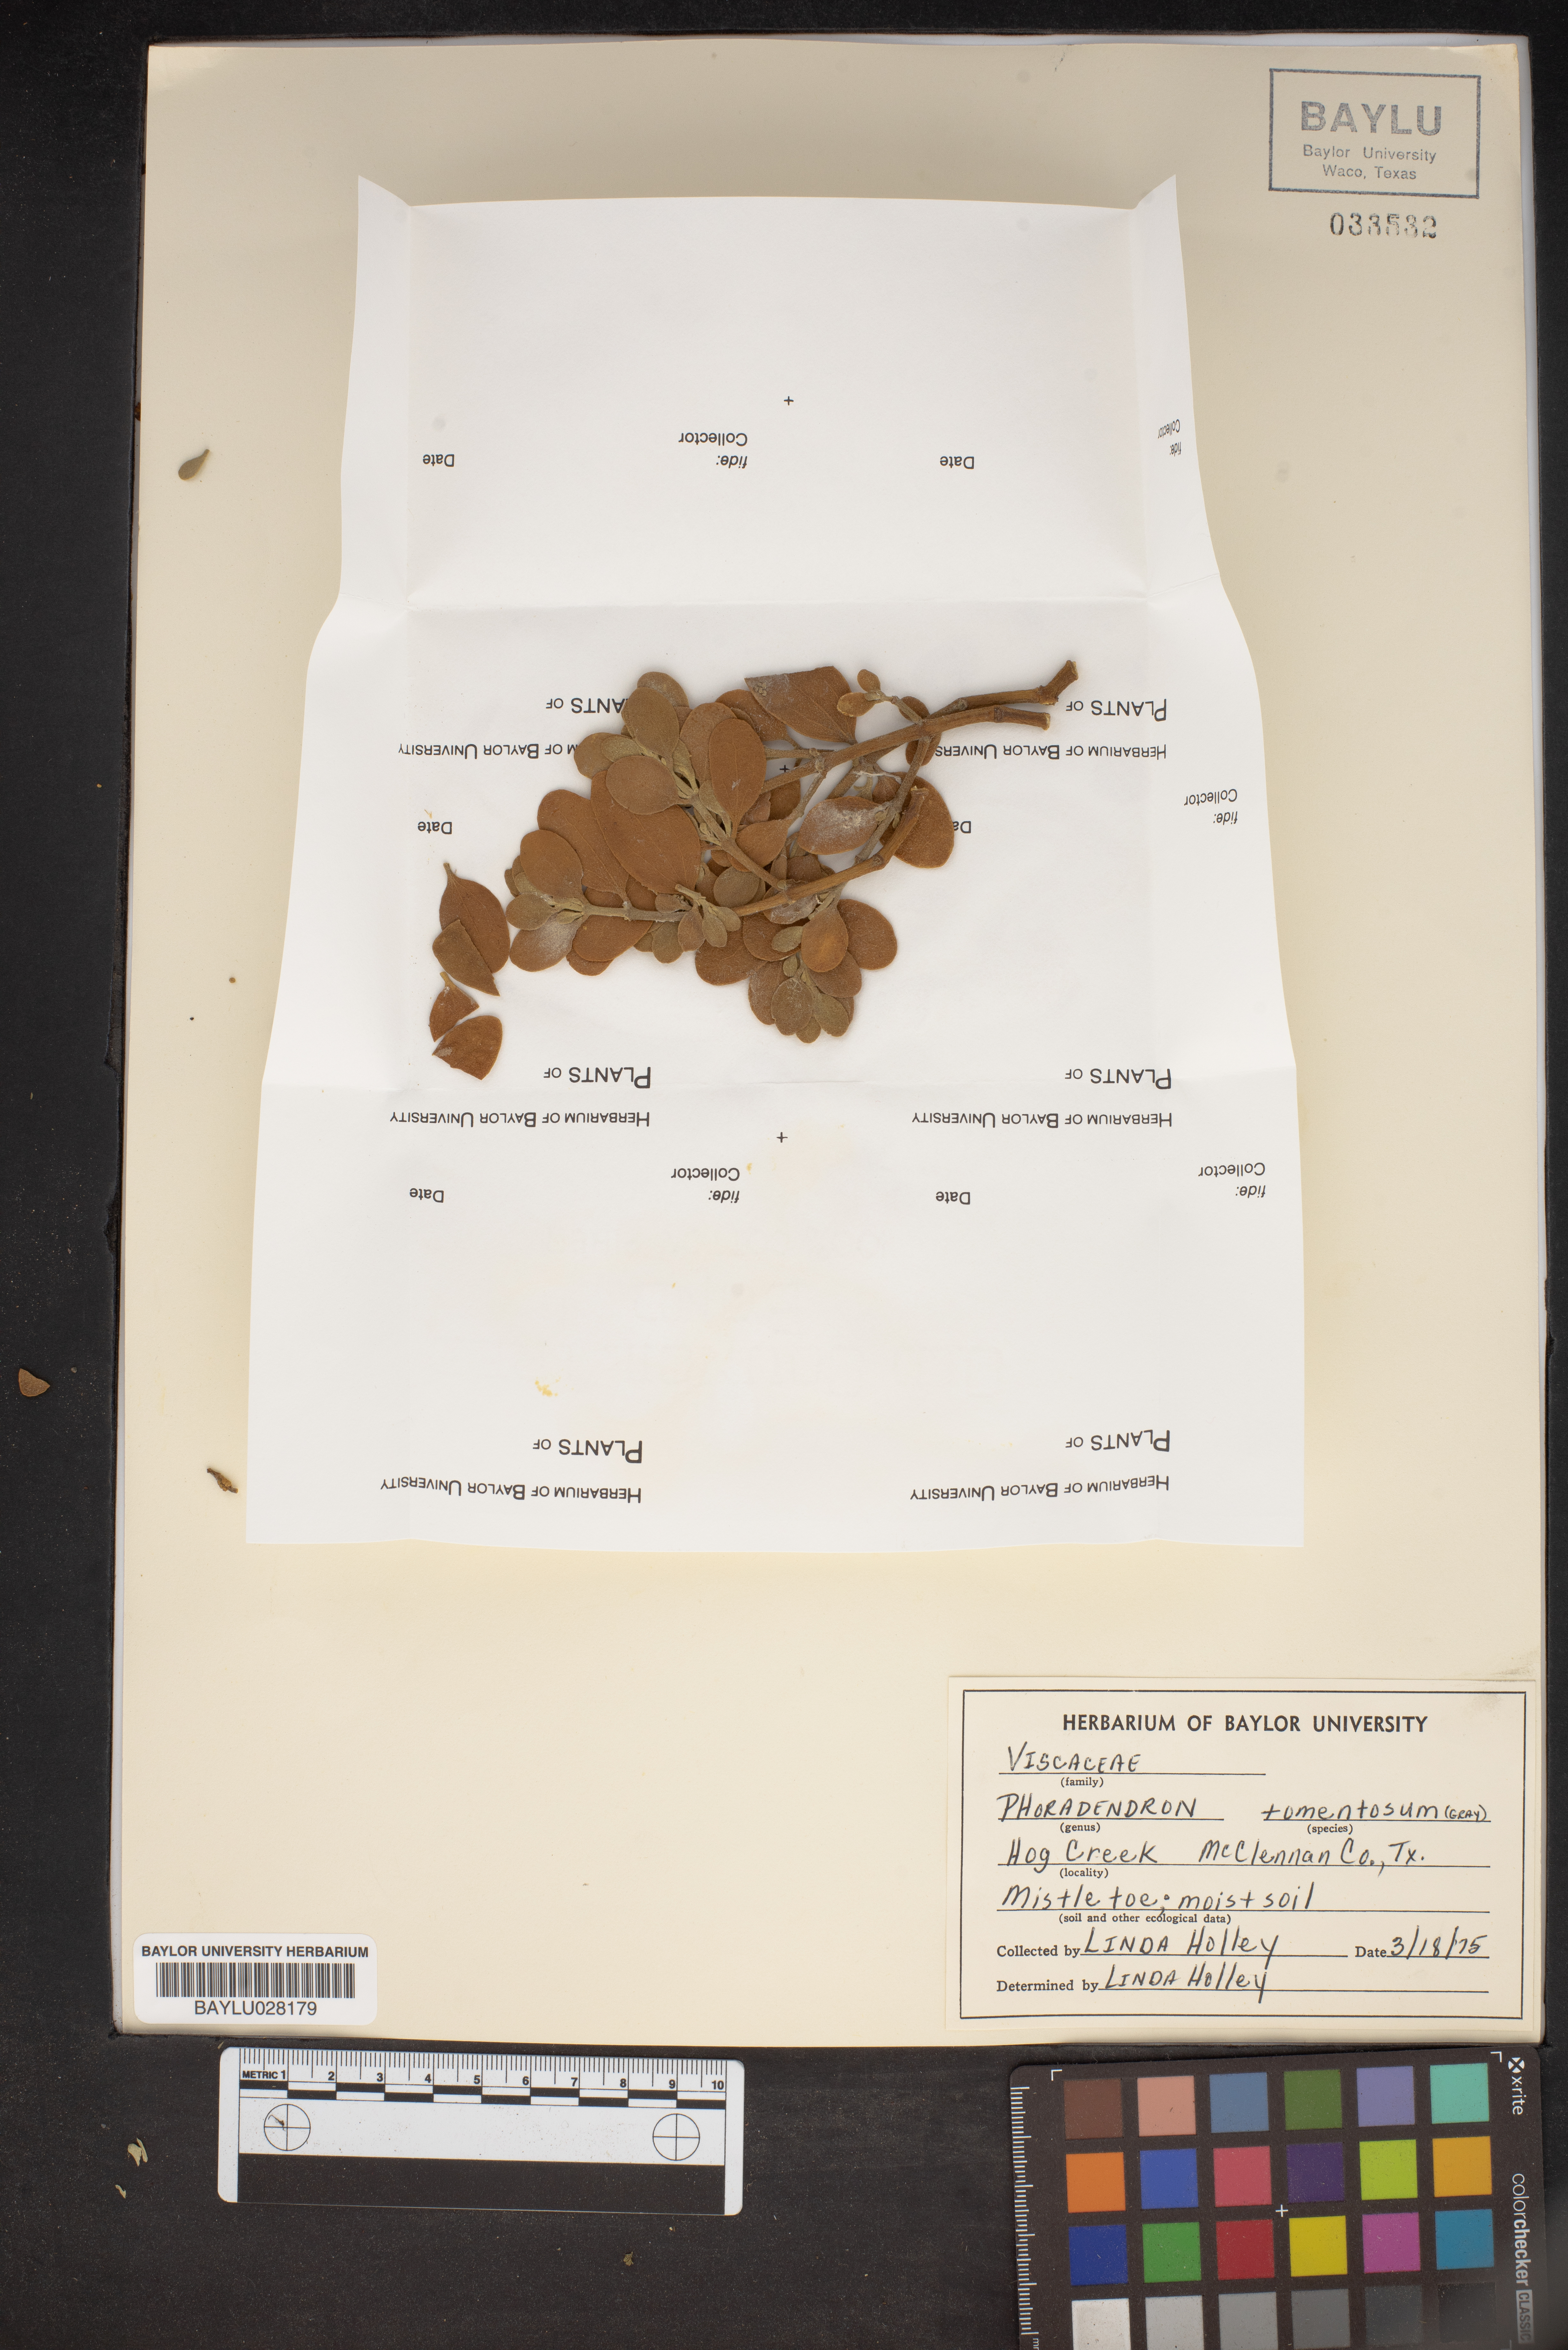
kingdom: Plantae
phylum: Tracheophyta
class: Magnoliopsida
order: Santalales
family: Viscaceae
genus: Phoradendron
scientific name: Phoradendron leucarpum
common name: Pacific mistletoe
